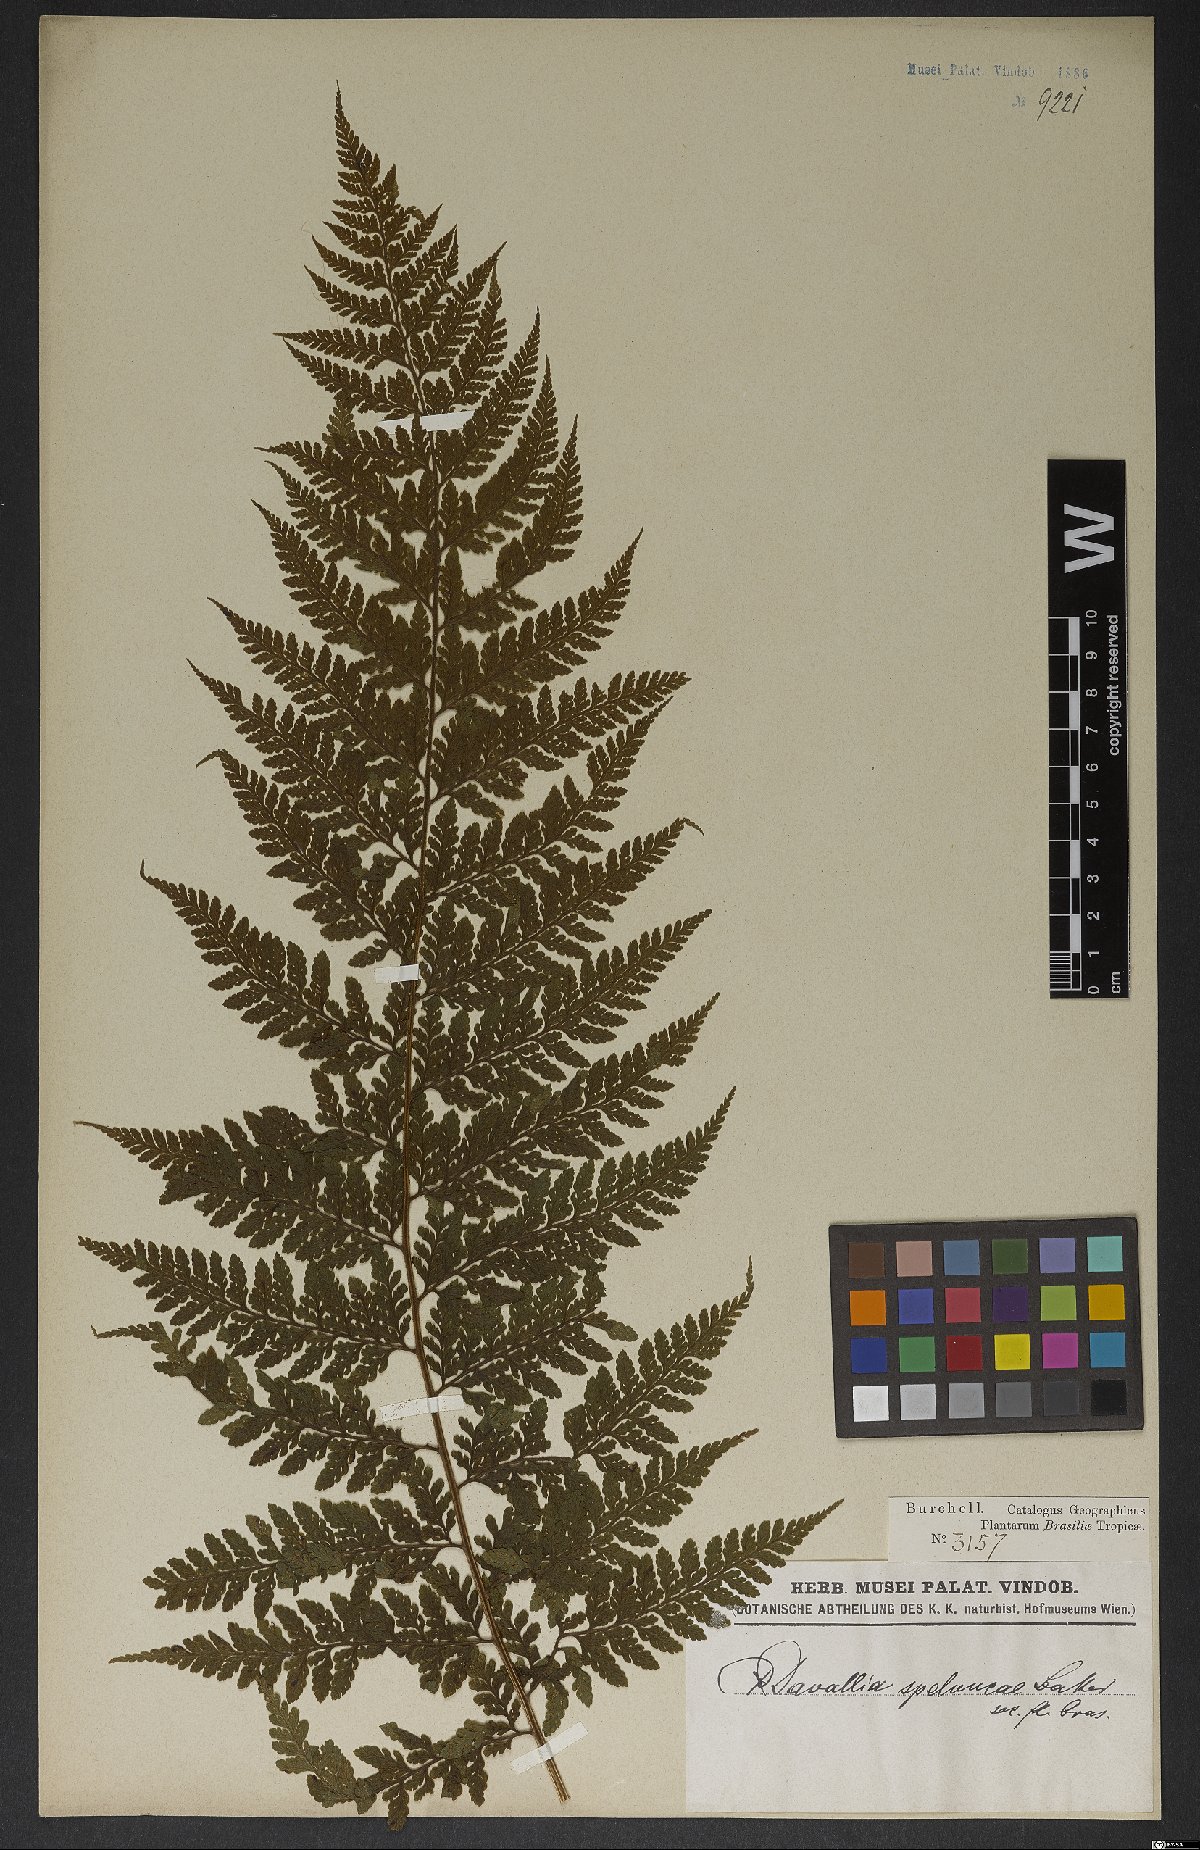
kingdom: Plantae
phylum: Tracheophyta
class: Polypodiopsida
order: Polypodiales
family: Dennstaedtiaceae
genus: Microlepia
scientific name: Microlepia speluncae
